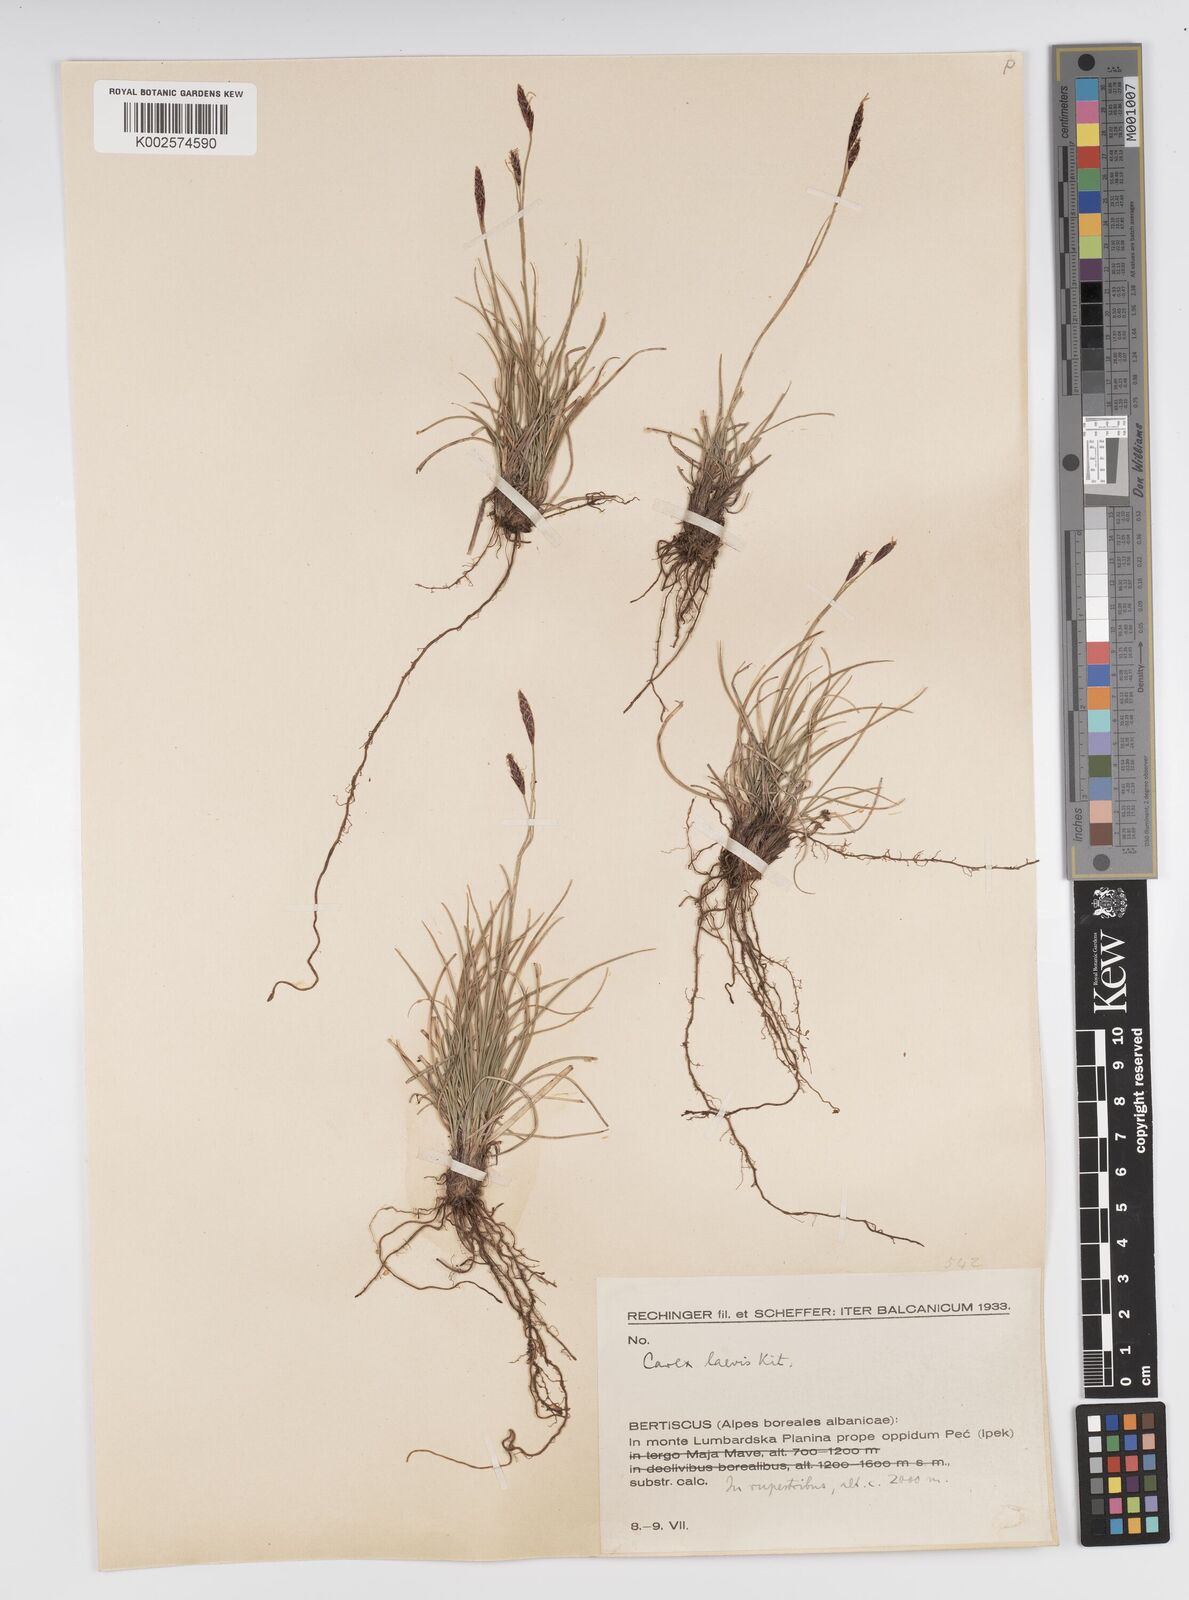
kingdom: Plantae
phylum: Tracheophyta
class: Liliopsida
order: Poales
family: Cyperaceae
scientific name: Cyperaceae
